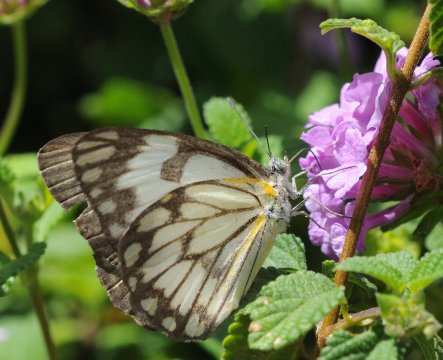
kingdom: Animalia
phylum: Arthropoda
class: Insecta
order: Lepidoptera
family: Pieridae
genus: Belenois
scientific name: Belenois aurota
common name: Pioneer White
